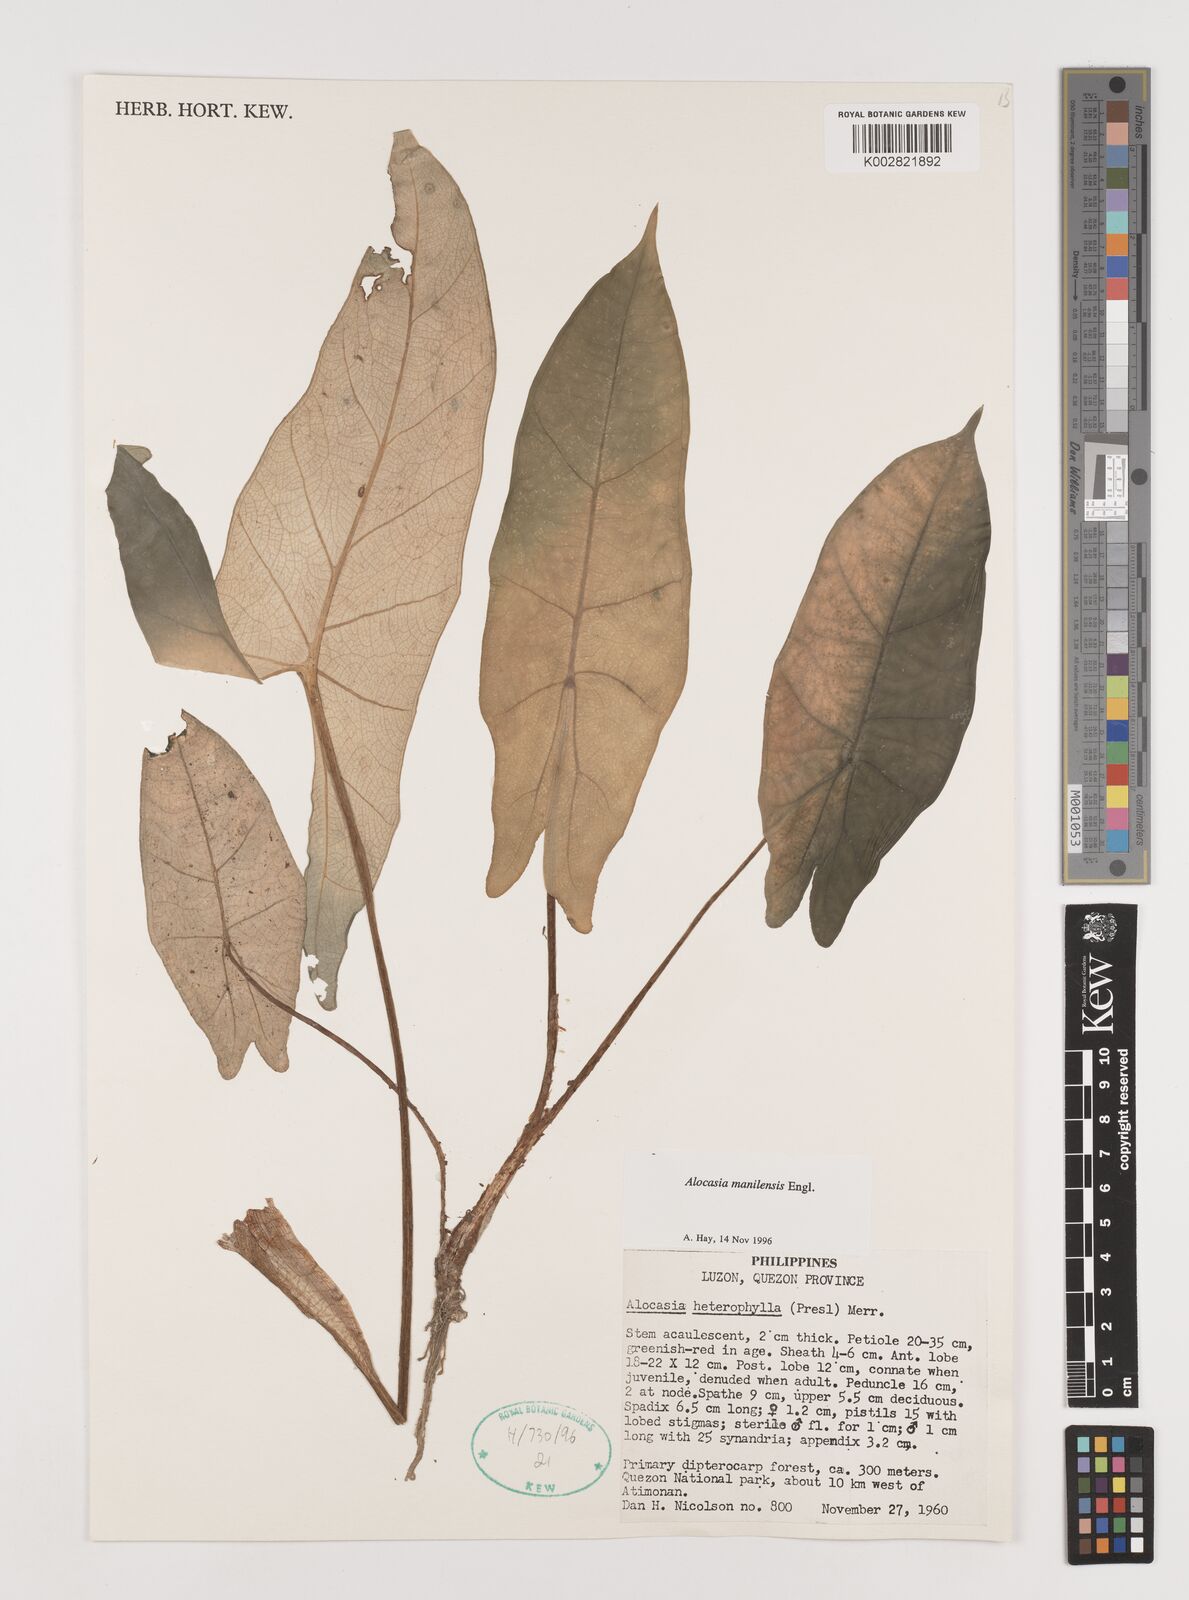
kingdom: Plantae
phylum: Tracheophyta
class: Liliopsida
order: Alismatales
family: Araceae
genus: Alocasia
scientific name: Alocasia heterophylla
